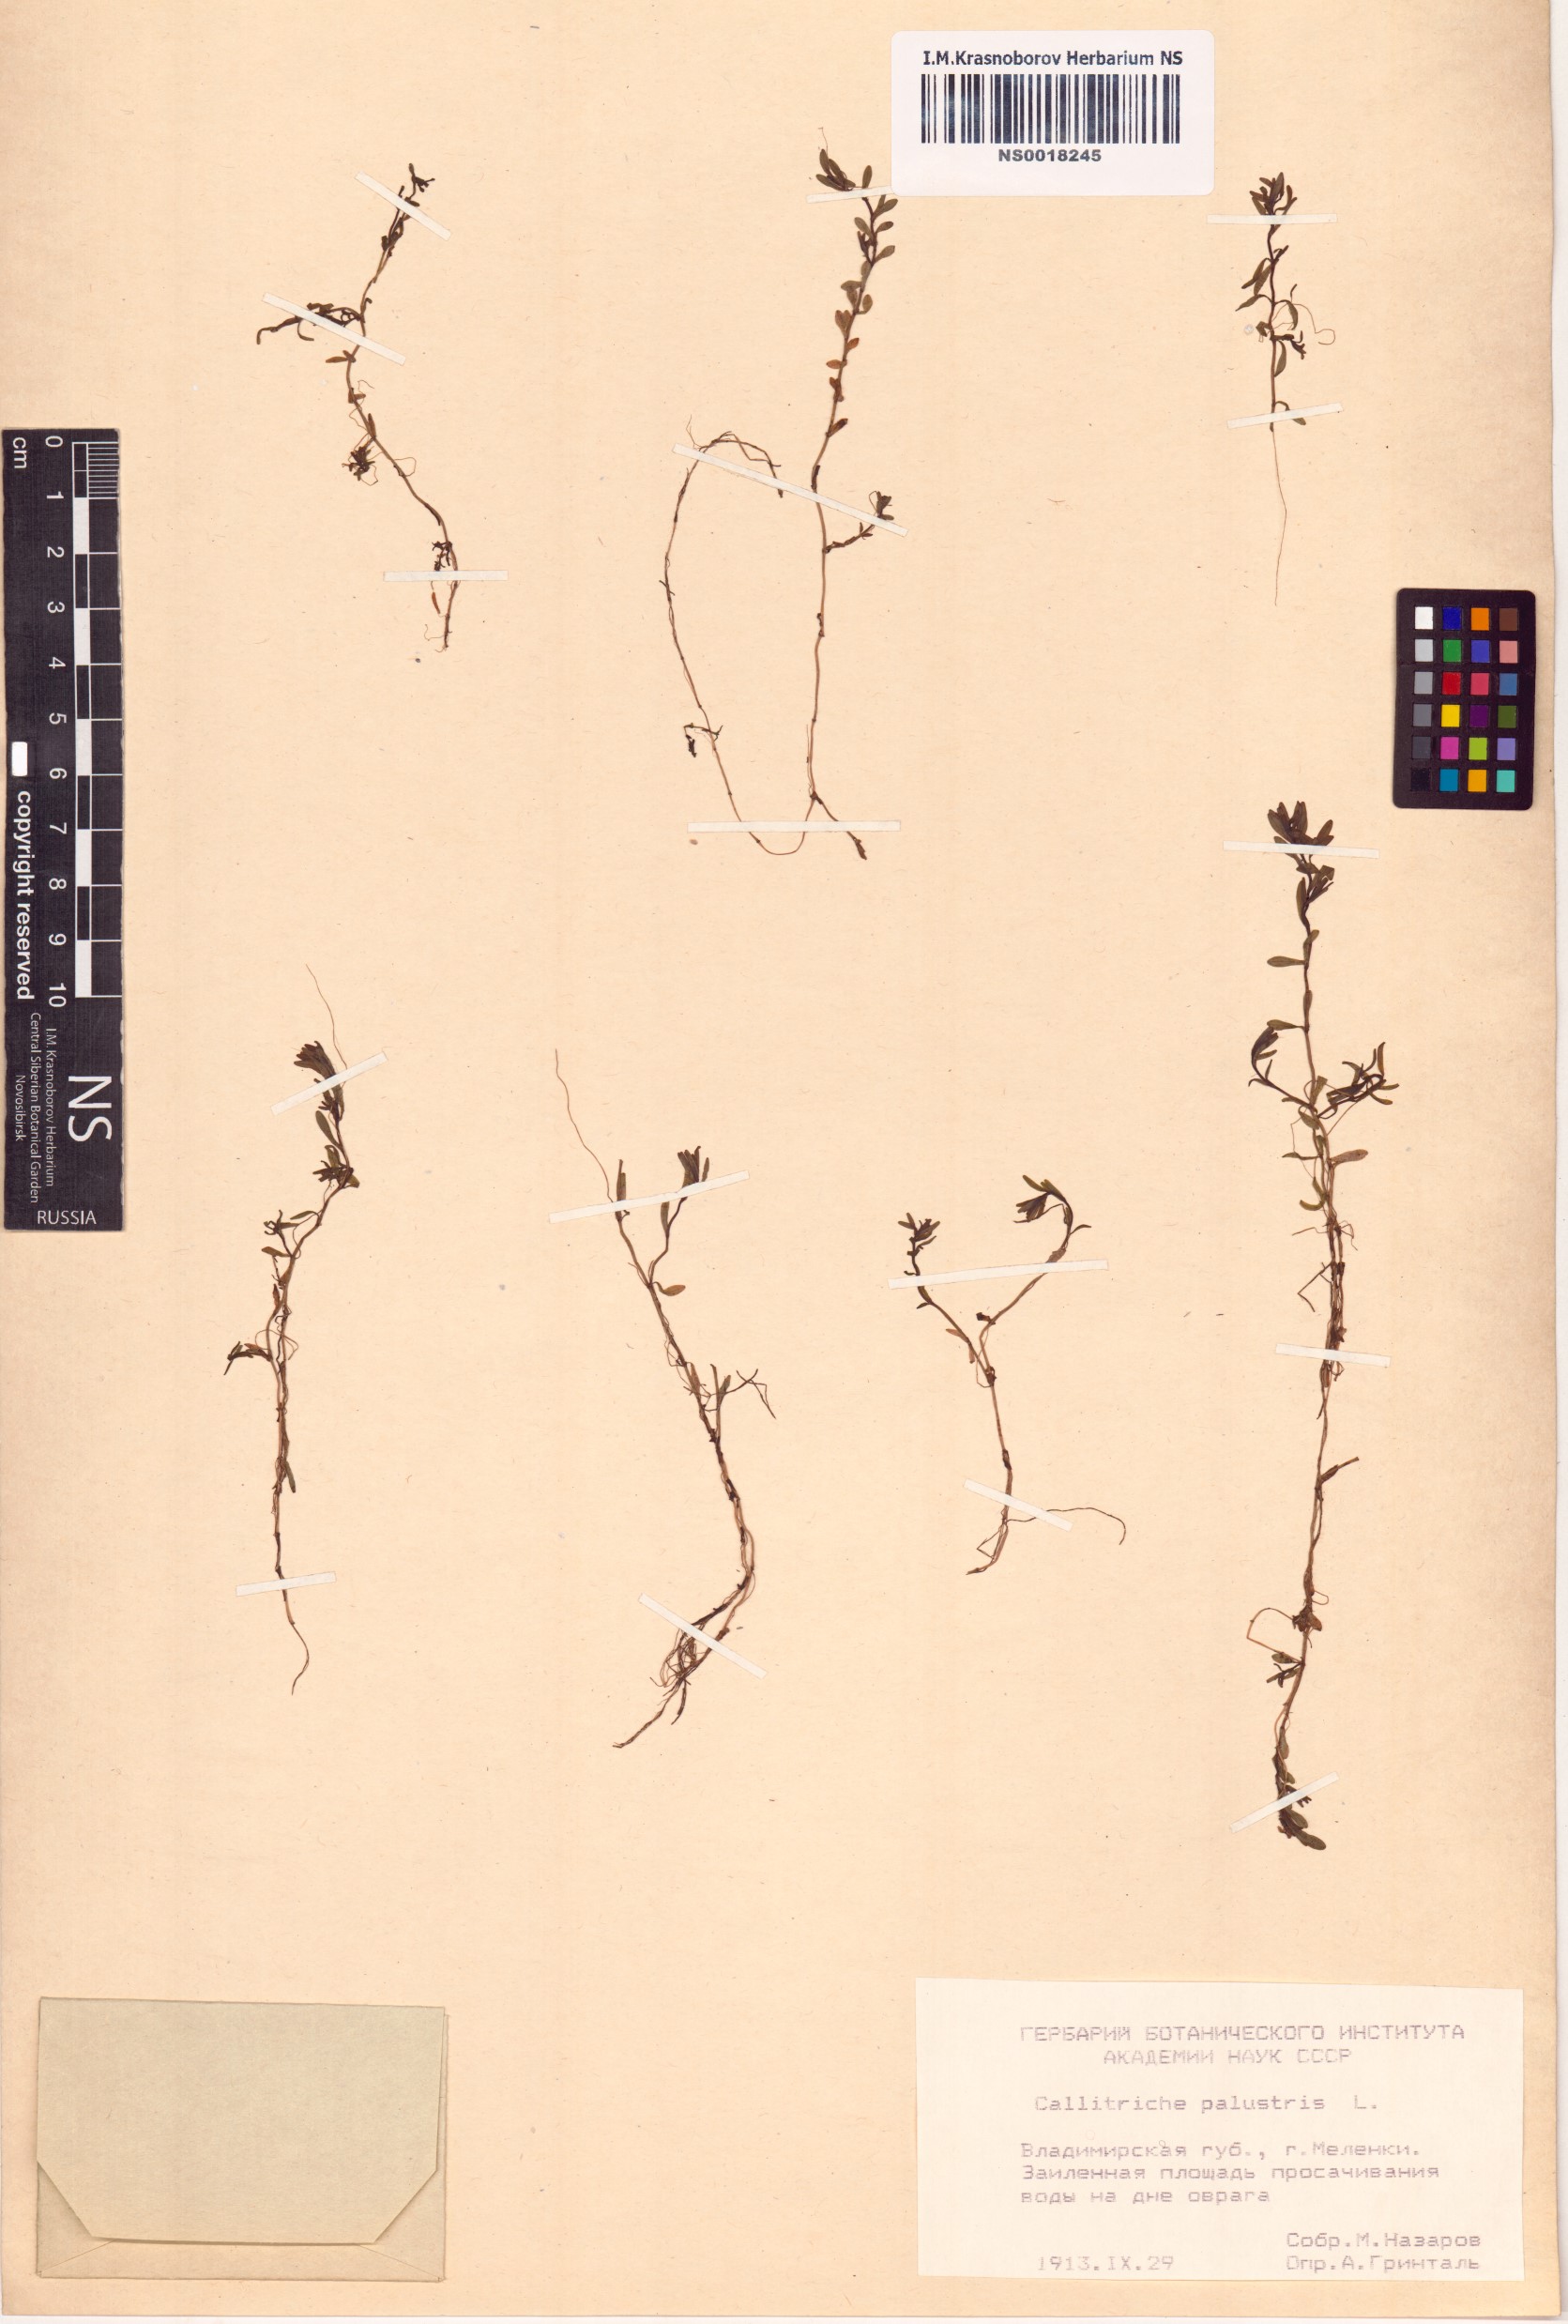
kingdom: Plantae
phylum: Tracheophyta
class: Magnoliopsida
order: Lamiales
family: Plantaginaceae
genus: Callitriche
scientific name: Callitriche palustris
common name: Spring water-starwort
